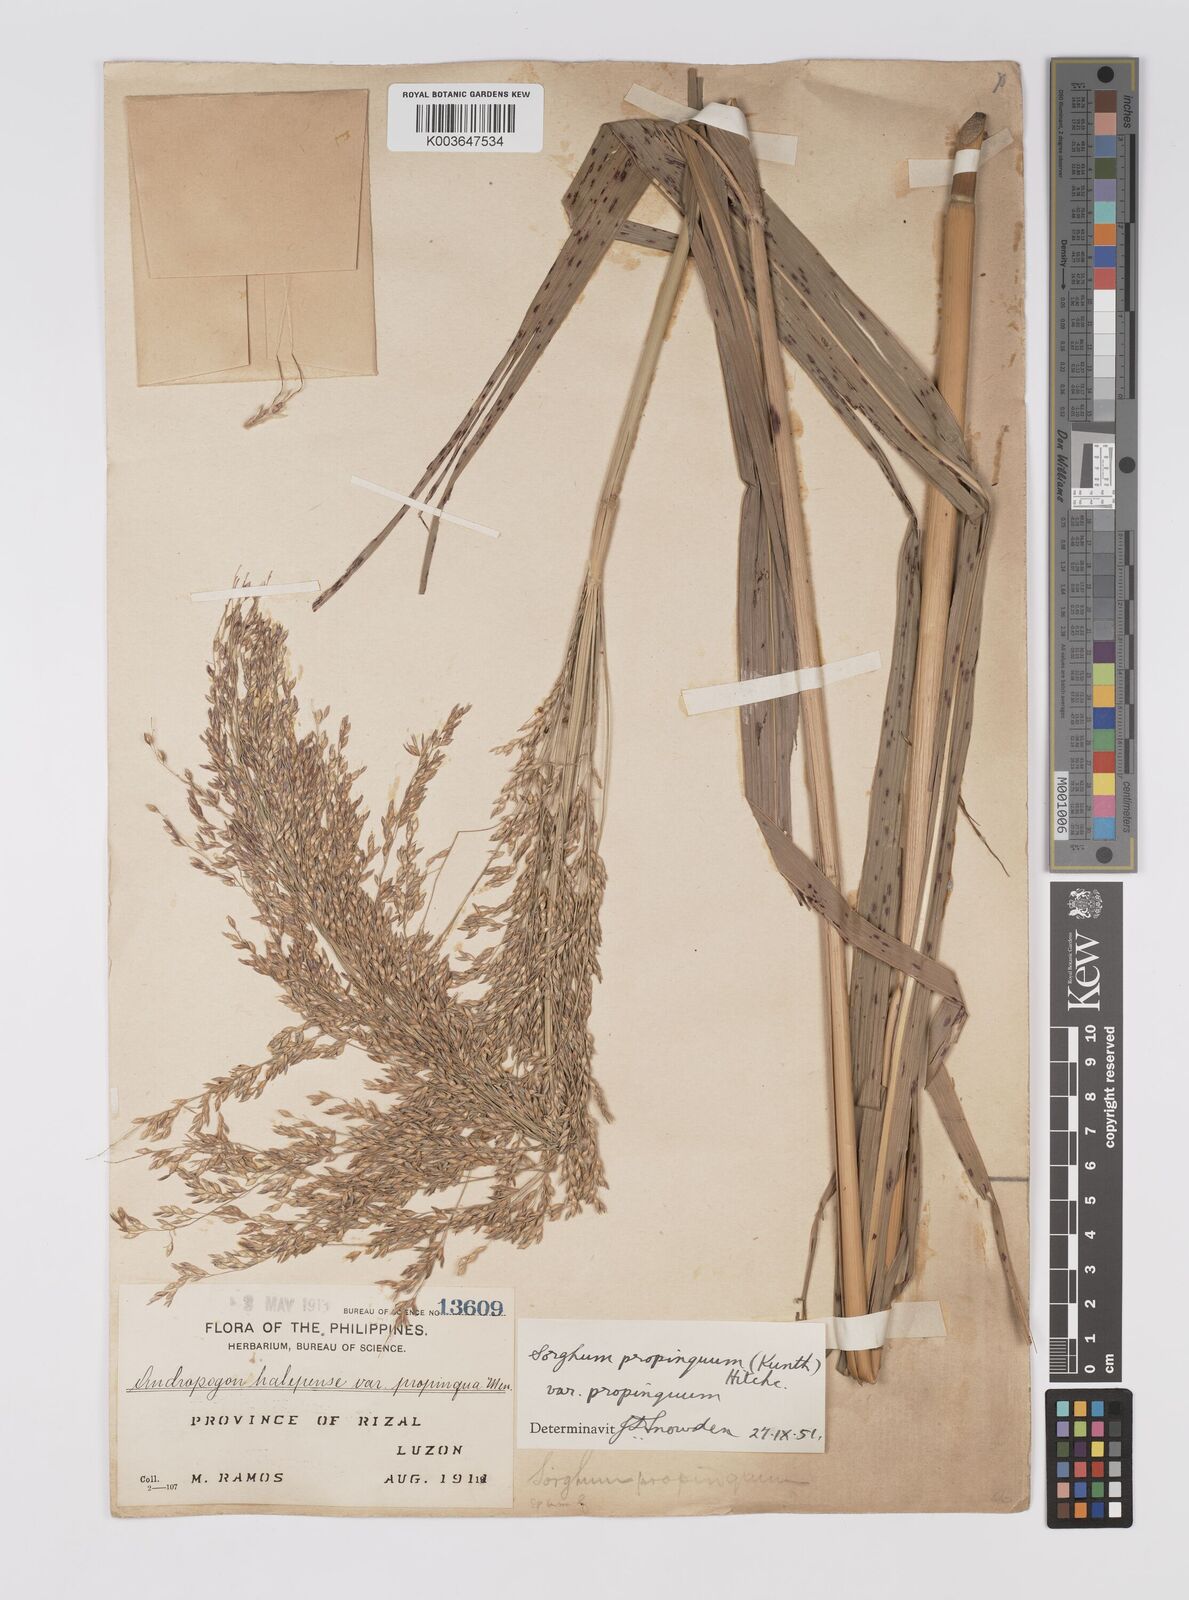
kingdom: Plantae
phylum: Tracheophyta
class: Liliopsida
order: Poales
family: Poaceae
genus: Sorghum
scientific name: Sorghum propinquum
